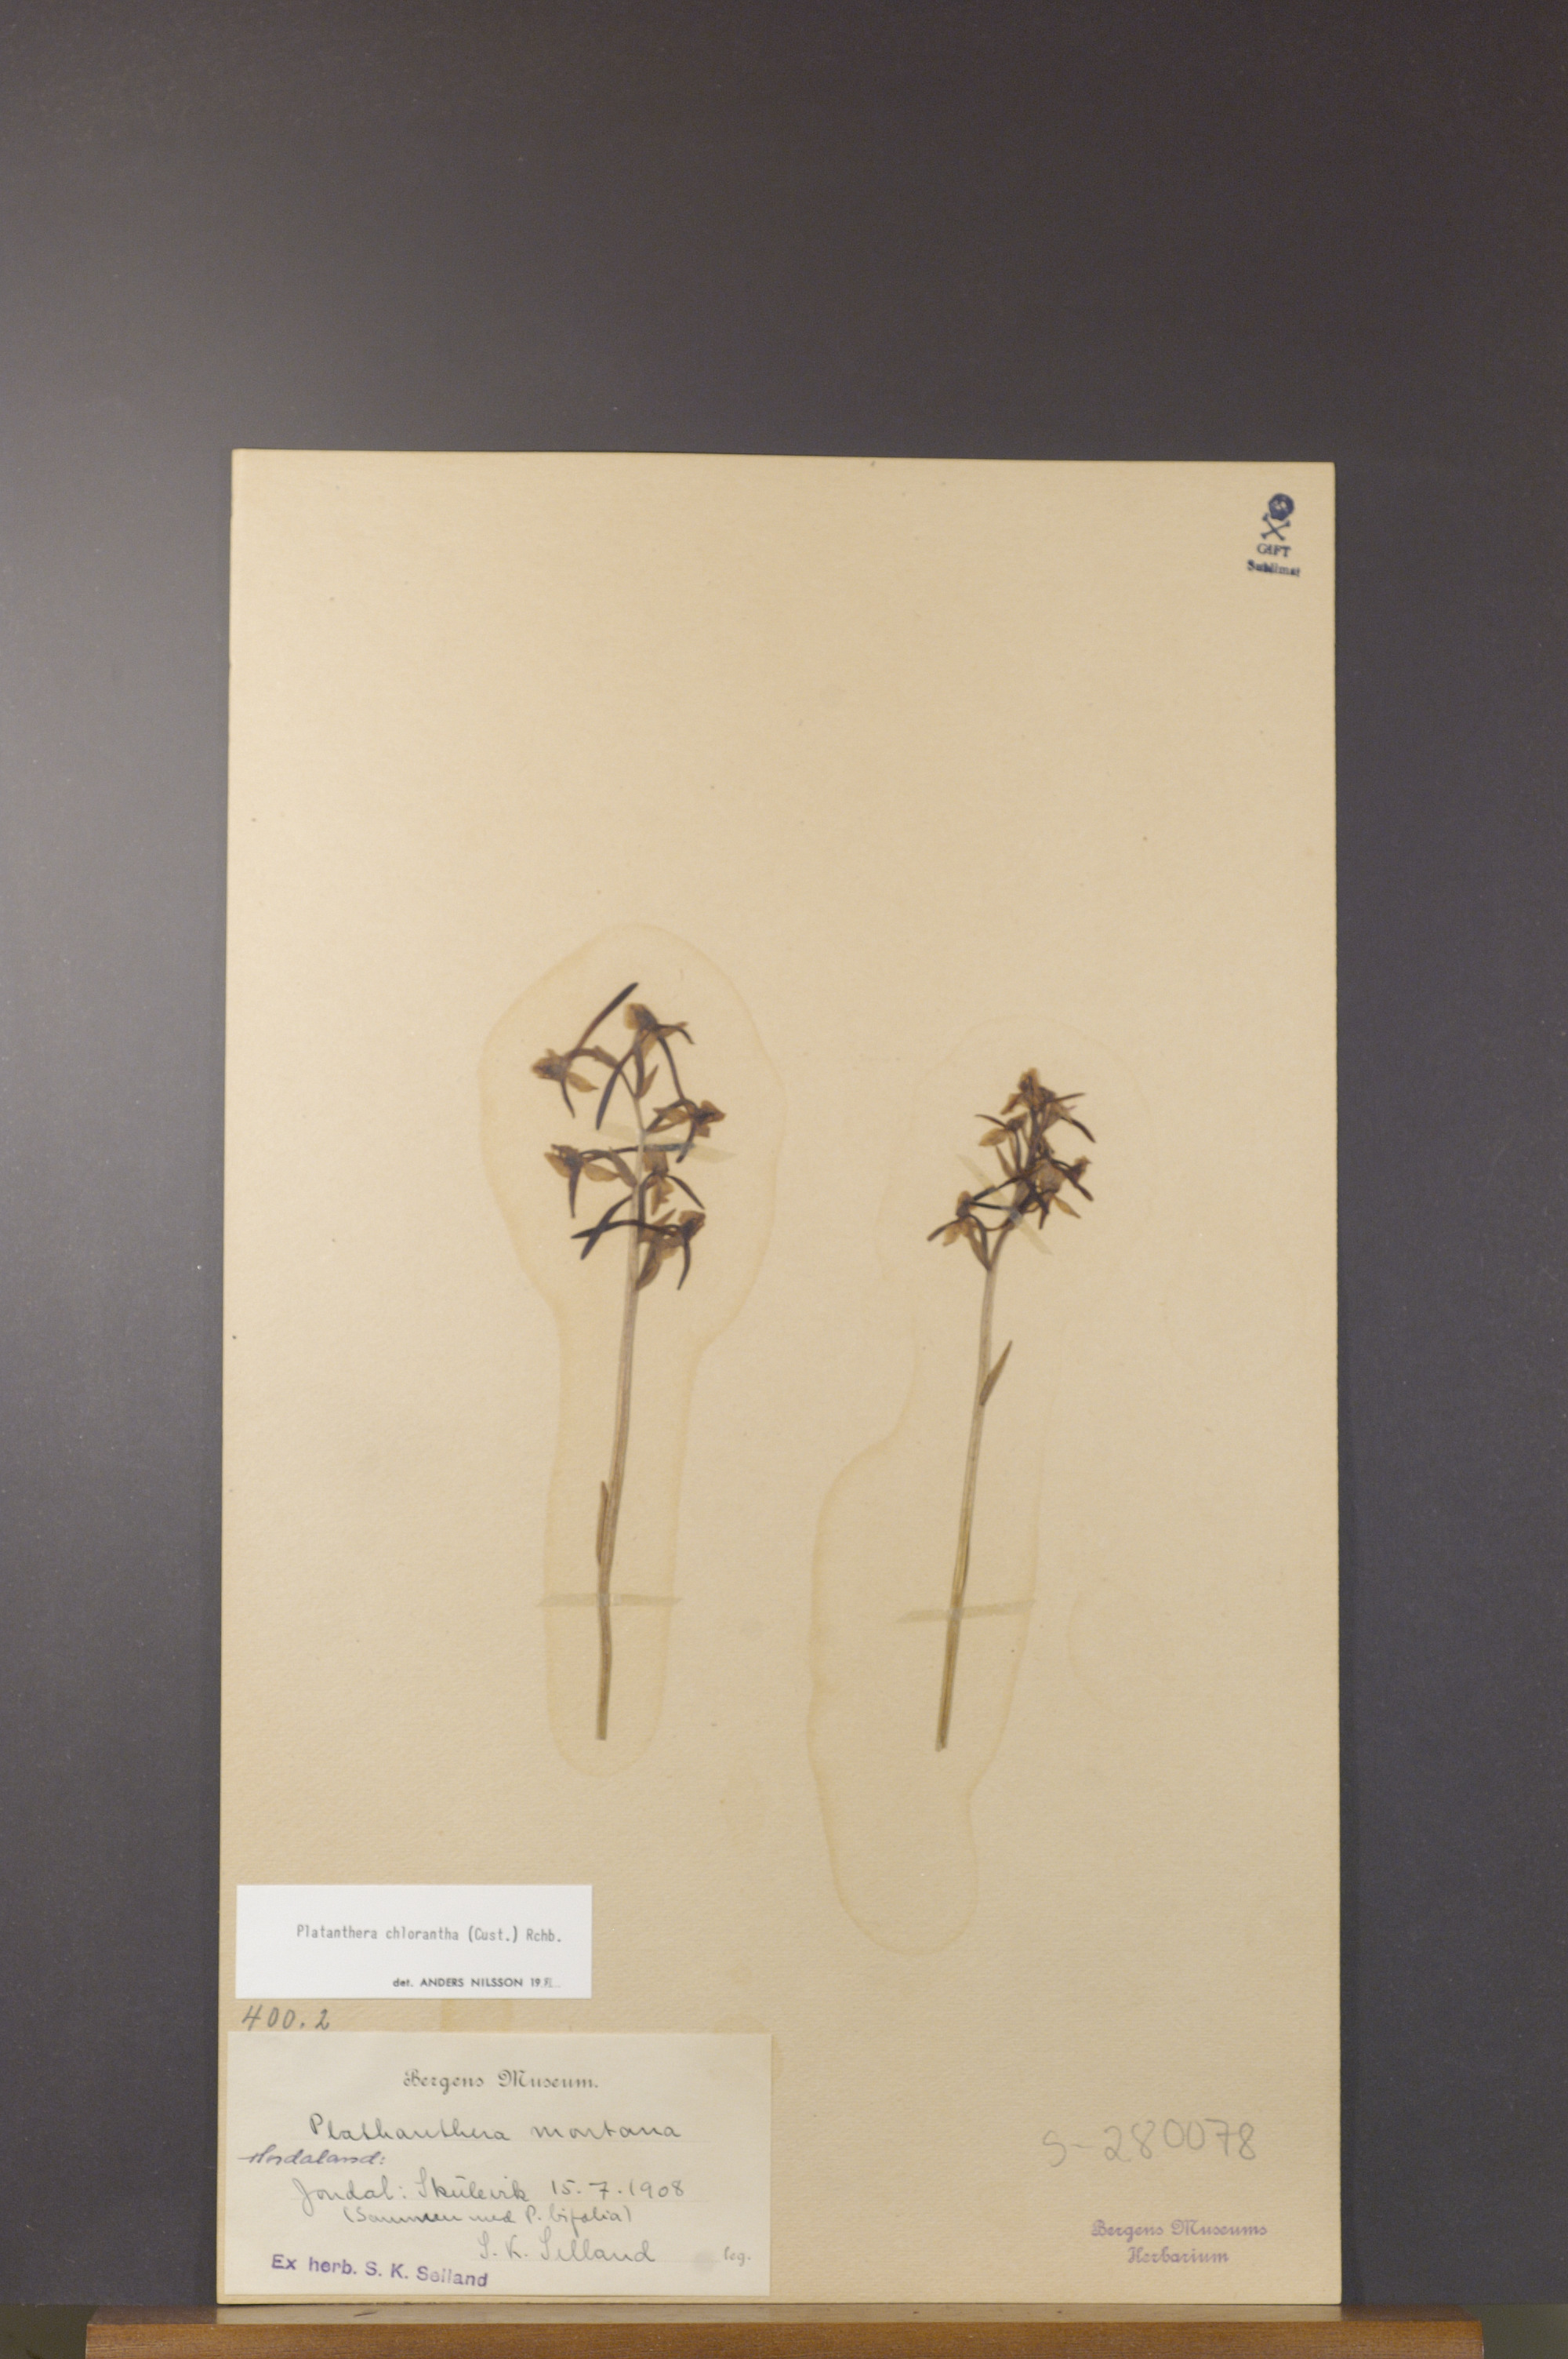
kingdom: Plantae
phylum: Tracheophyta
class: Liliopsida
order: Asparagales
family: Orchidaceae
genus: Platanthera
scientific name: Platanthera chlorantha
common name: Greater butterfly-orchid
